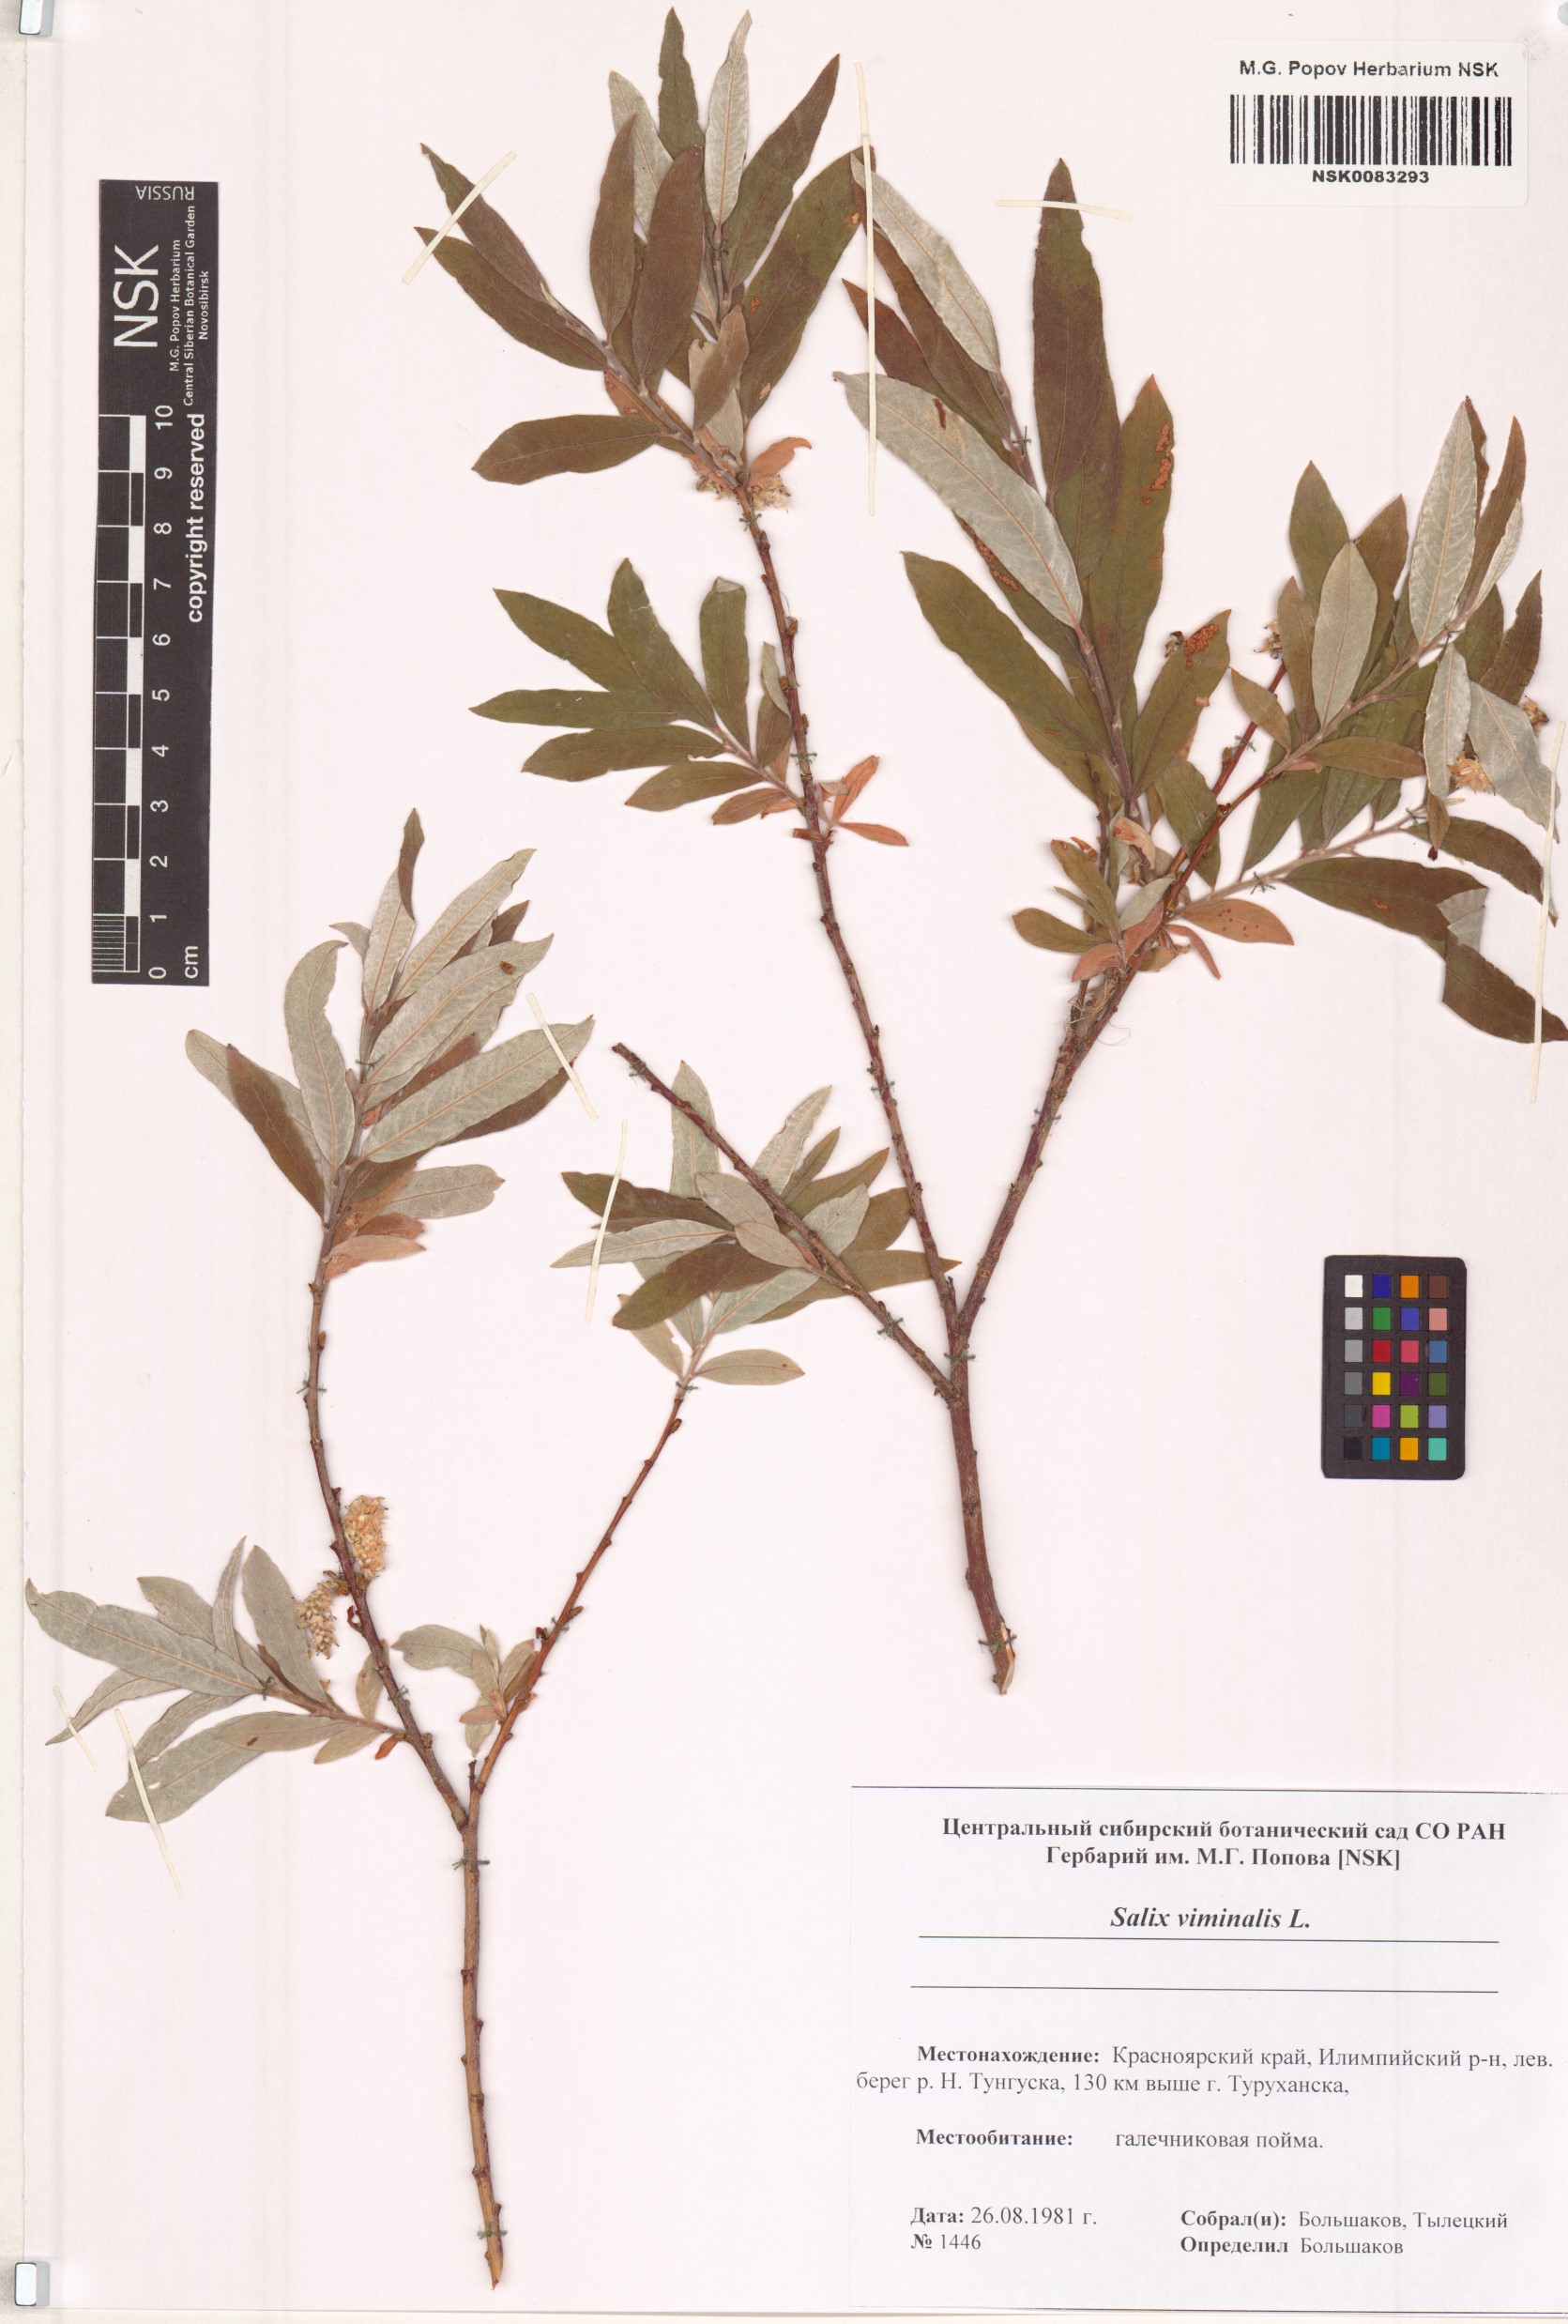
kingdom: Plantae
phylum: Tracheophyta
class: Magnoliopsida
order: Malpighiales
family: Salicaceae
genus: Salix
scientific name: Salix viminalis
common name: Osier
